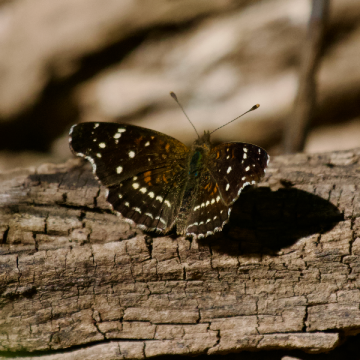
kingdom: Animalia
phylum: Arthropoda
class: Insecta
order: Lepidoptera
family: Nymphalidae
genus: Anthanassa
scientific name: Anthanassa texana
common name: Texan Crescent
